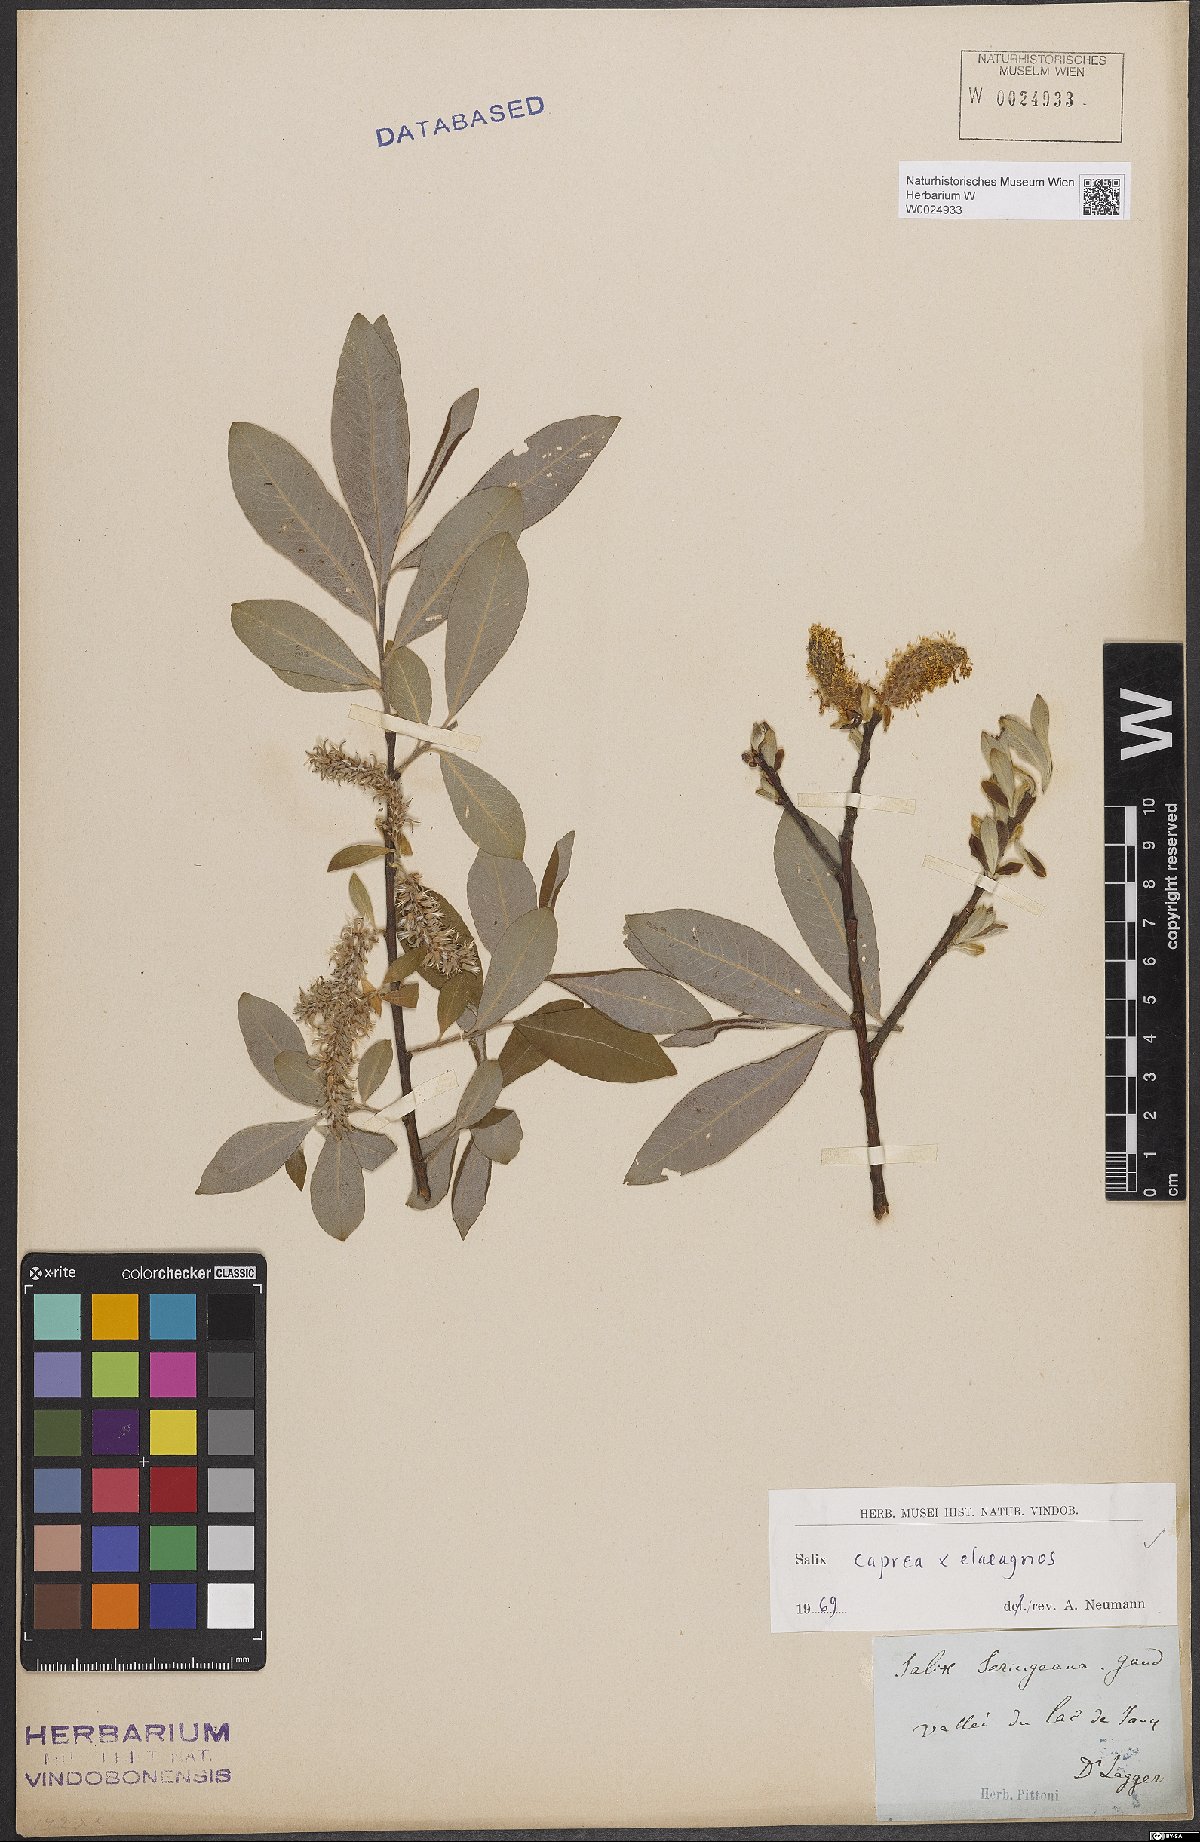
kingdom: Plantae
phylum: Tracheophyta
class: Magnoliopsida
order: Malpighiales
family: Salicaceae
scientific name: Salicaceae
